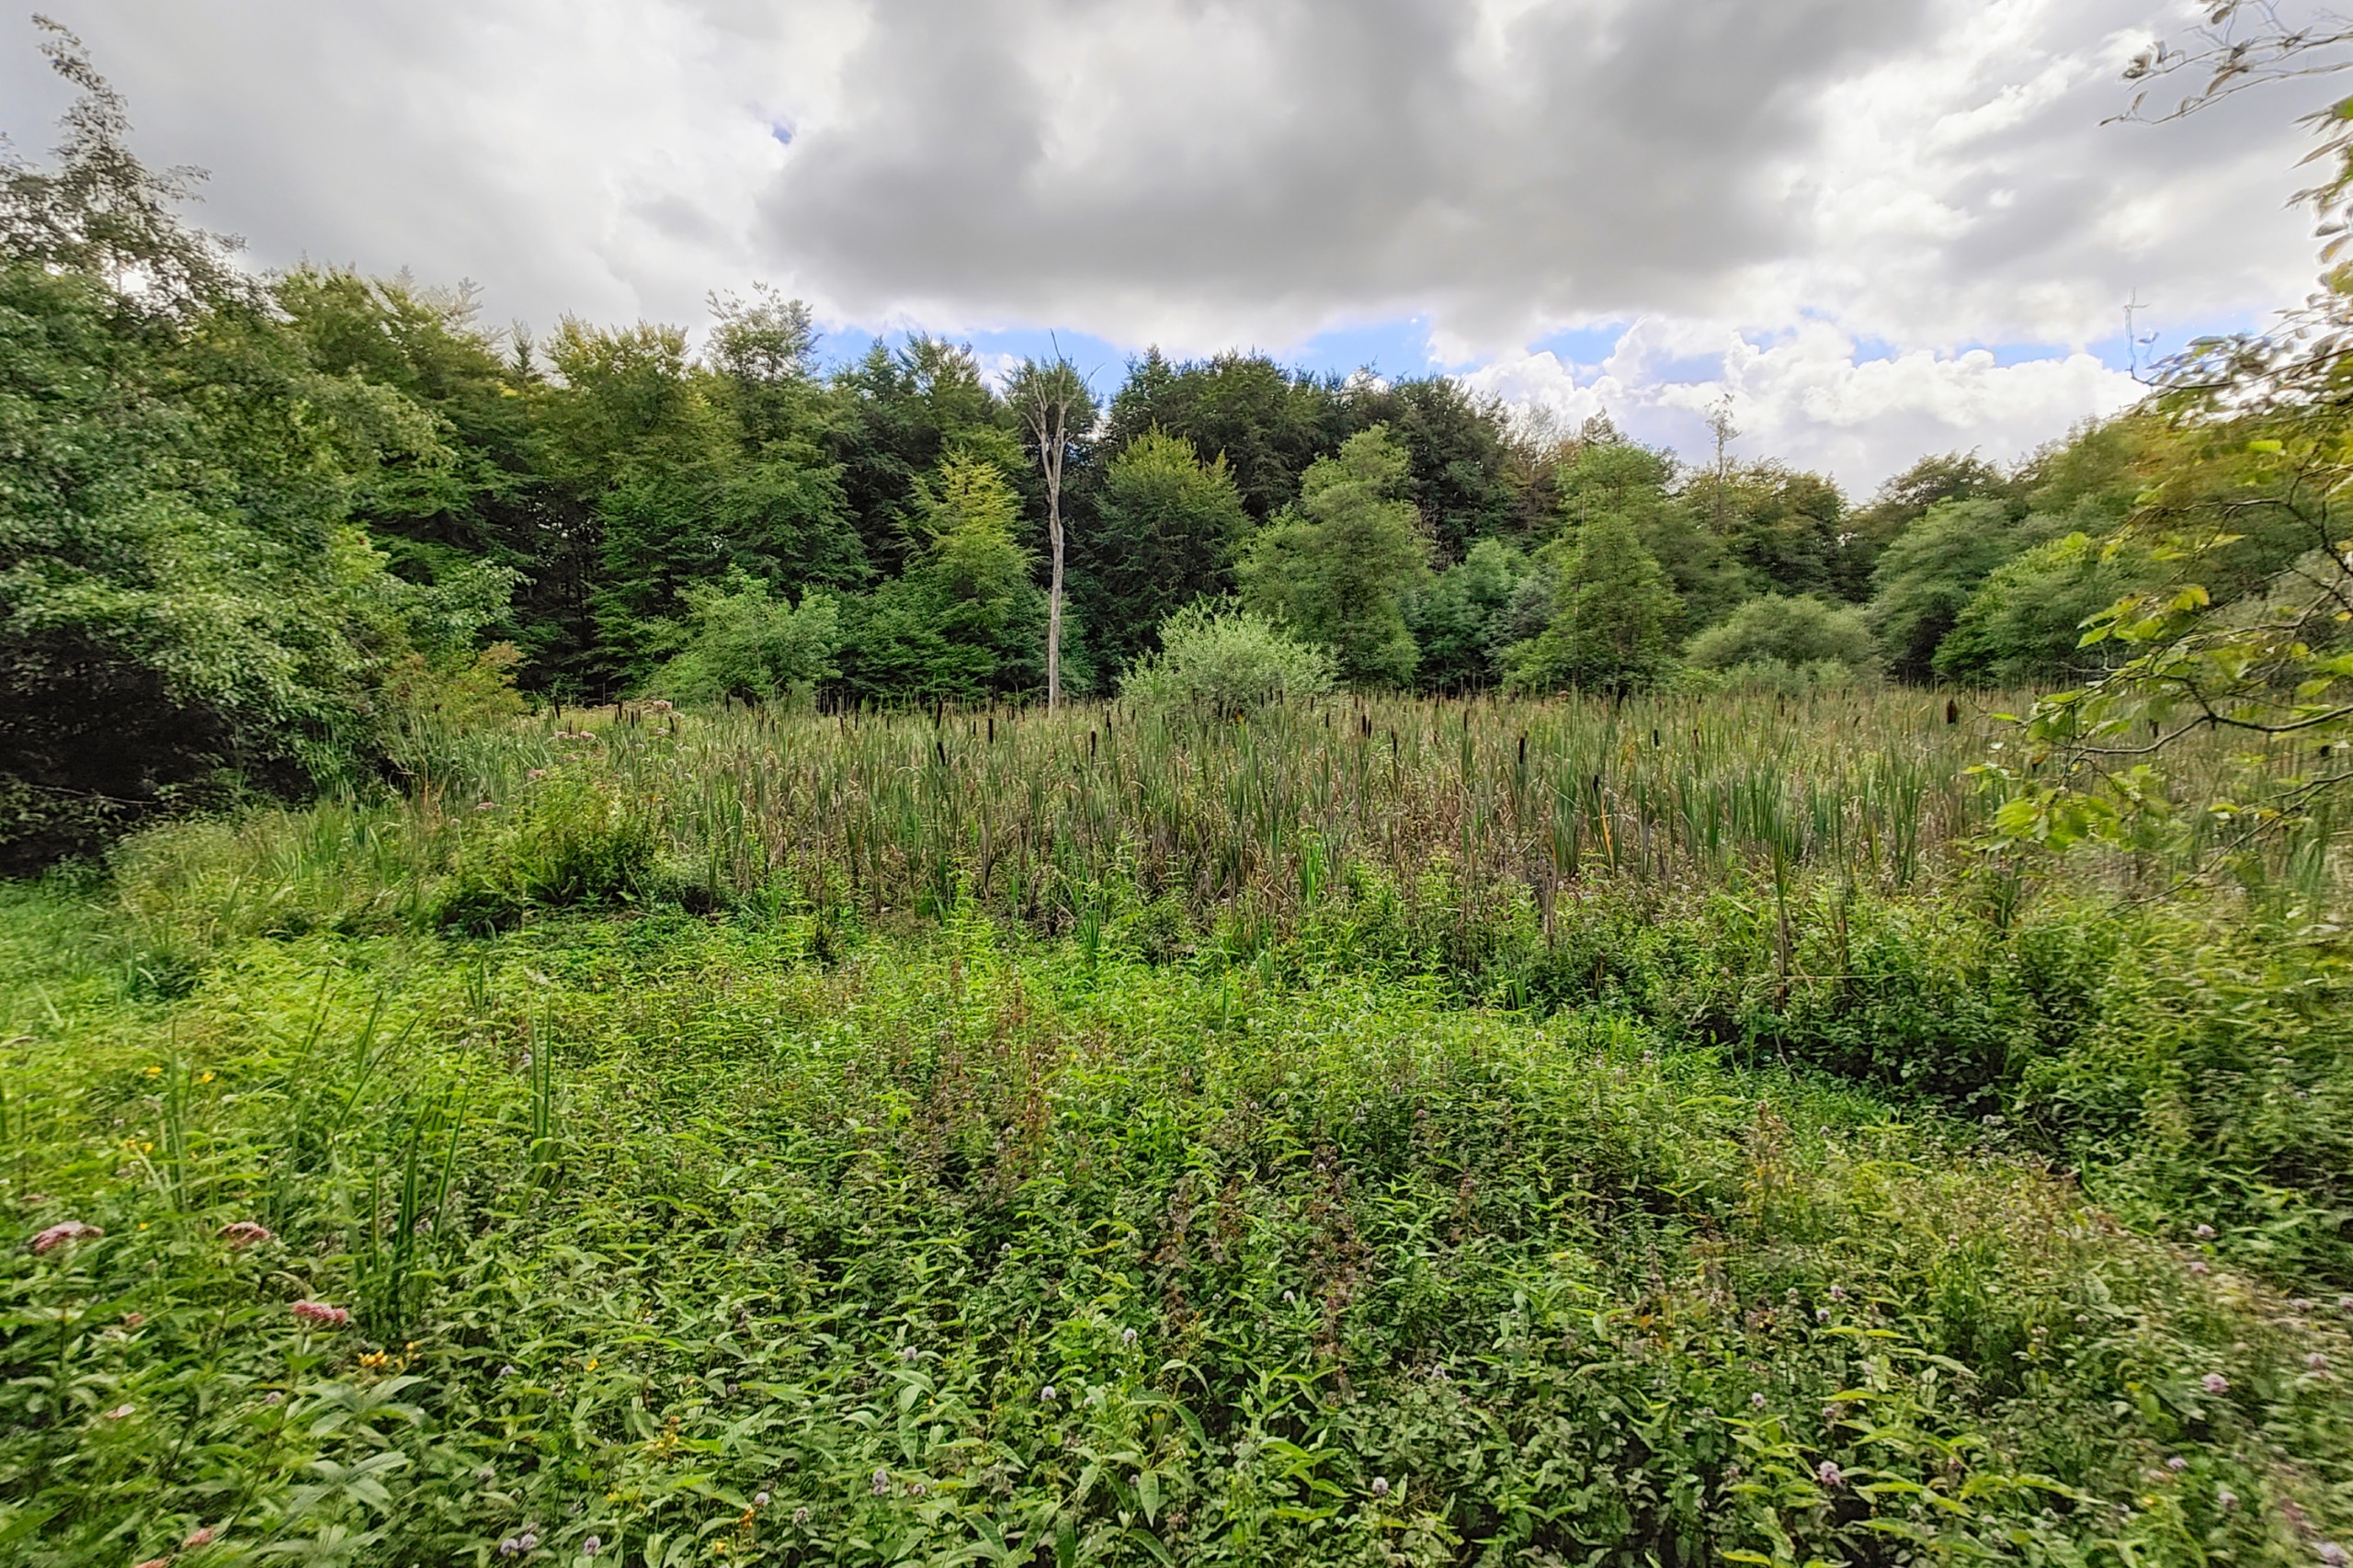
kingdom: Animalia
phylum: Arthropoda
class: Insecta
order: Odonata
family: Aeshnidae
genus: Aeshna
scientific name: Aeshna affinis
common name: Sydlig mosaikguldsmed
